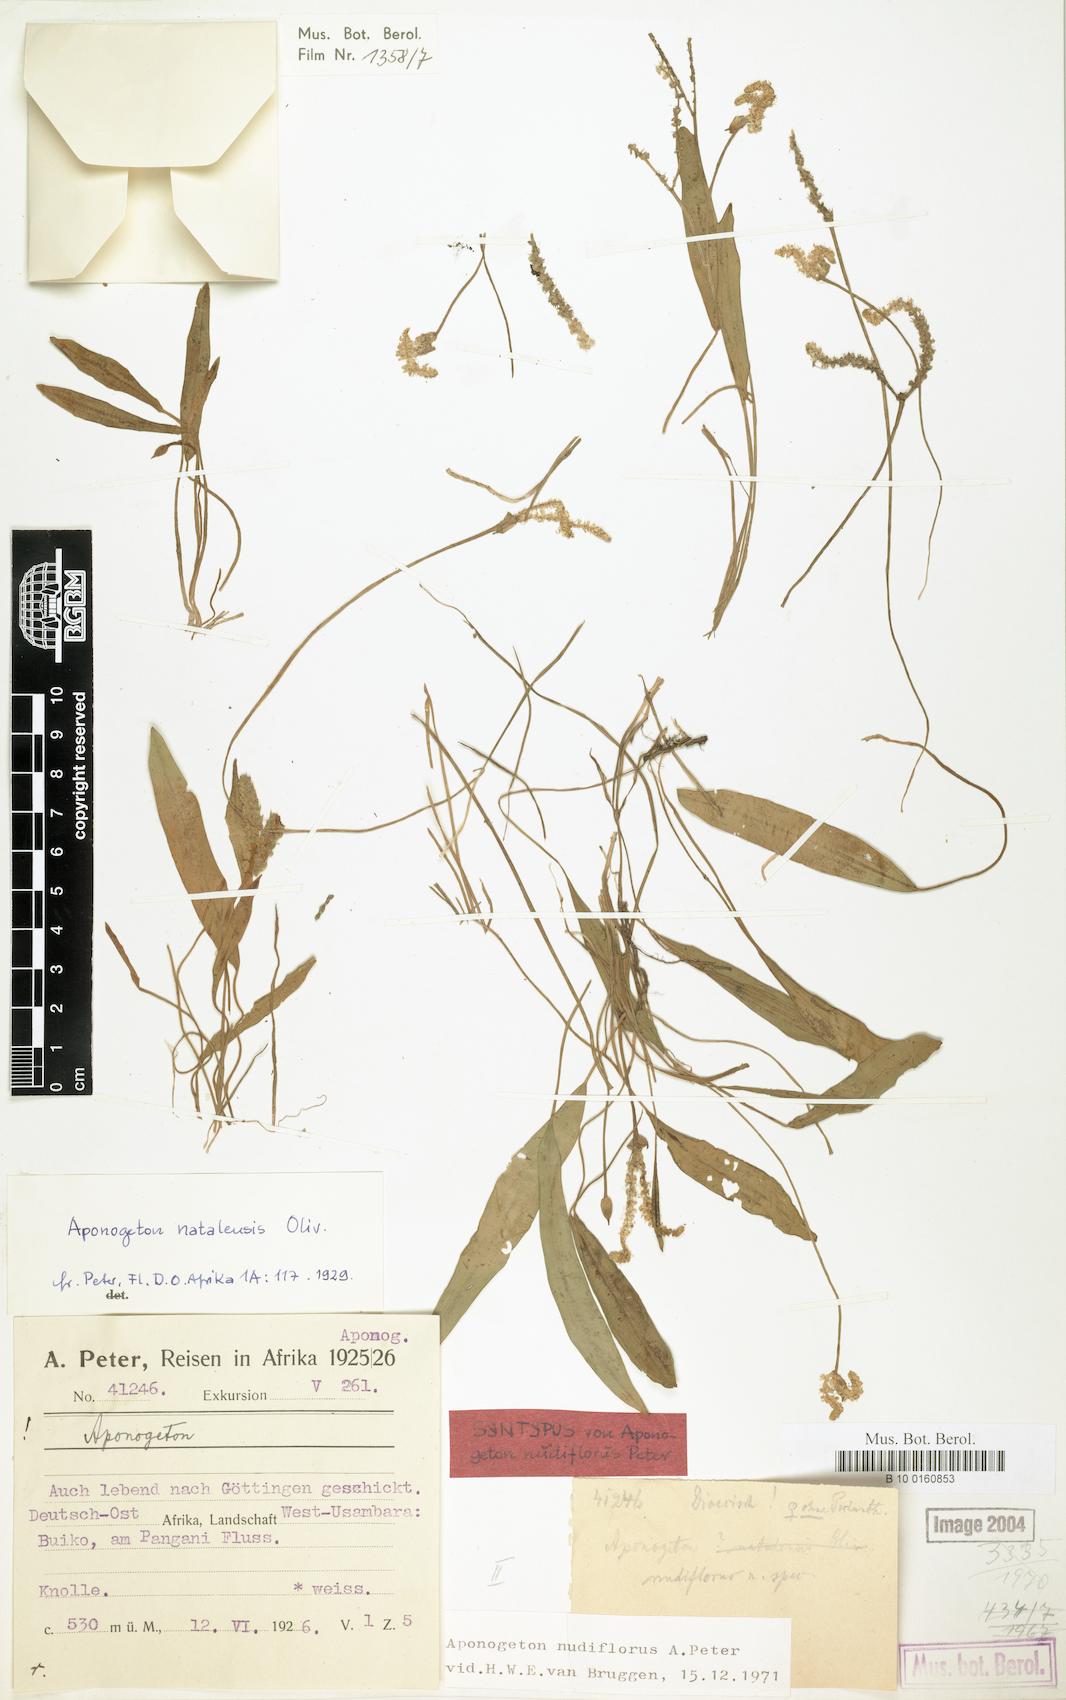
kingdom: Plantae
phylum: Tracheophyta
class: Liliopsida
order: Alismatales
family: Aponogetonaceae
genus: Aponogeton
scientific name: Aponogeton nudiflorus
